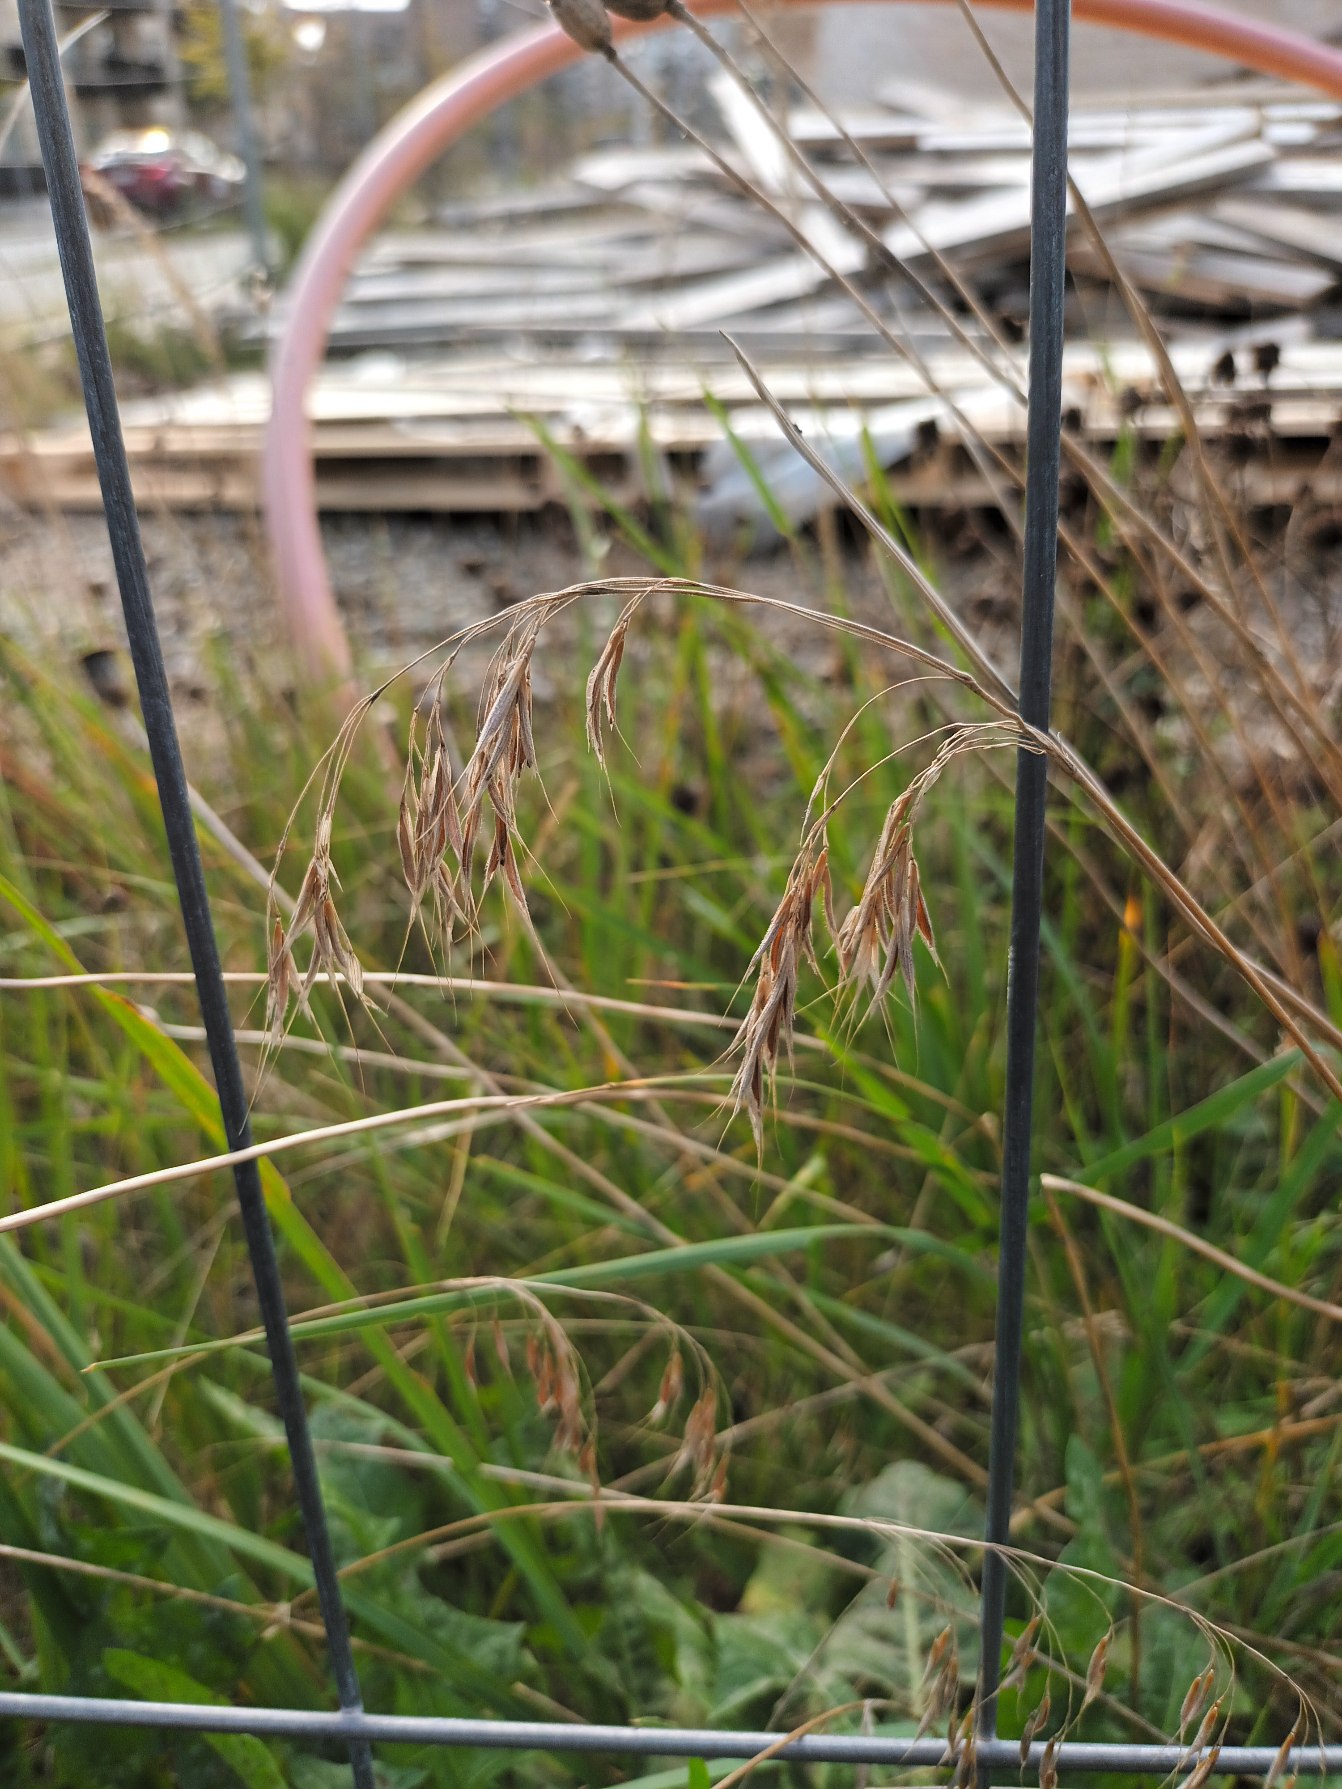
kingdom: Plantae
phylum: Tracheophyta
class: Liliopsida
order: Poales
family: Poaceae
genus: Bromus
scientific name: Bromus tectorum
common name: Tag-hejre
